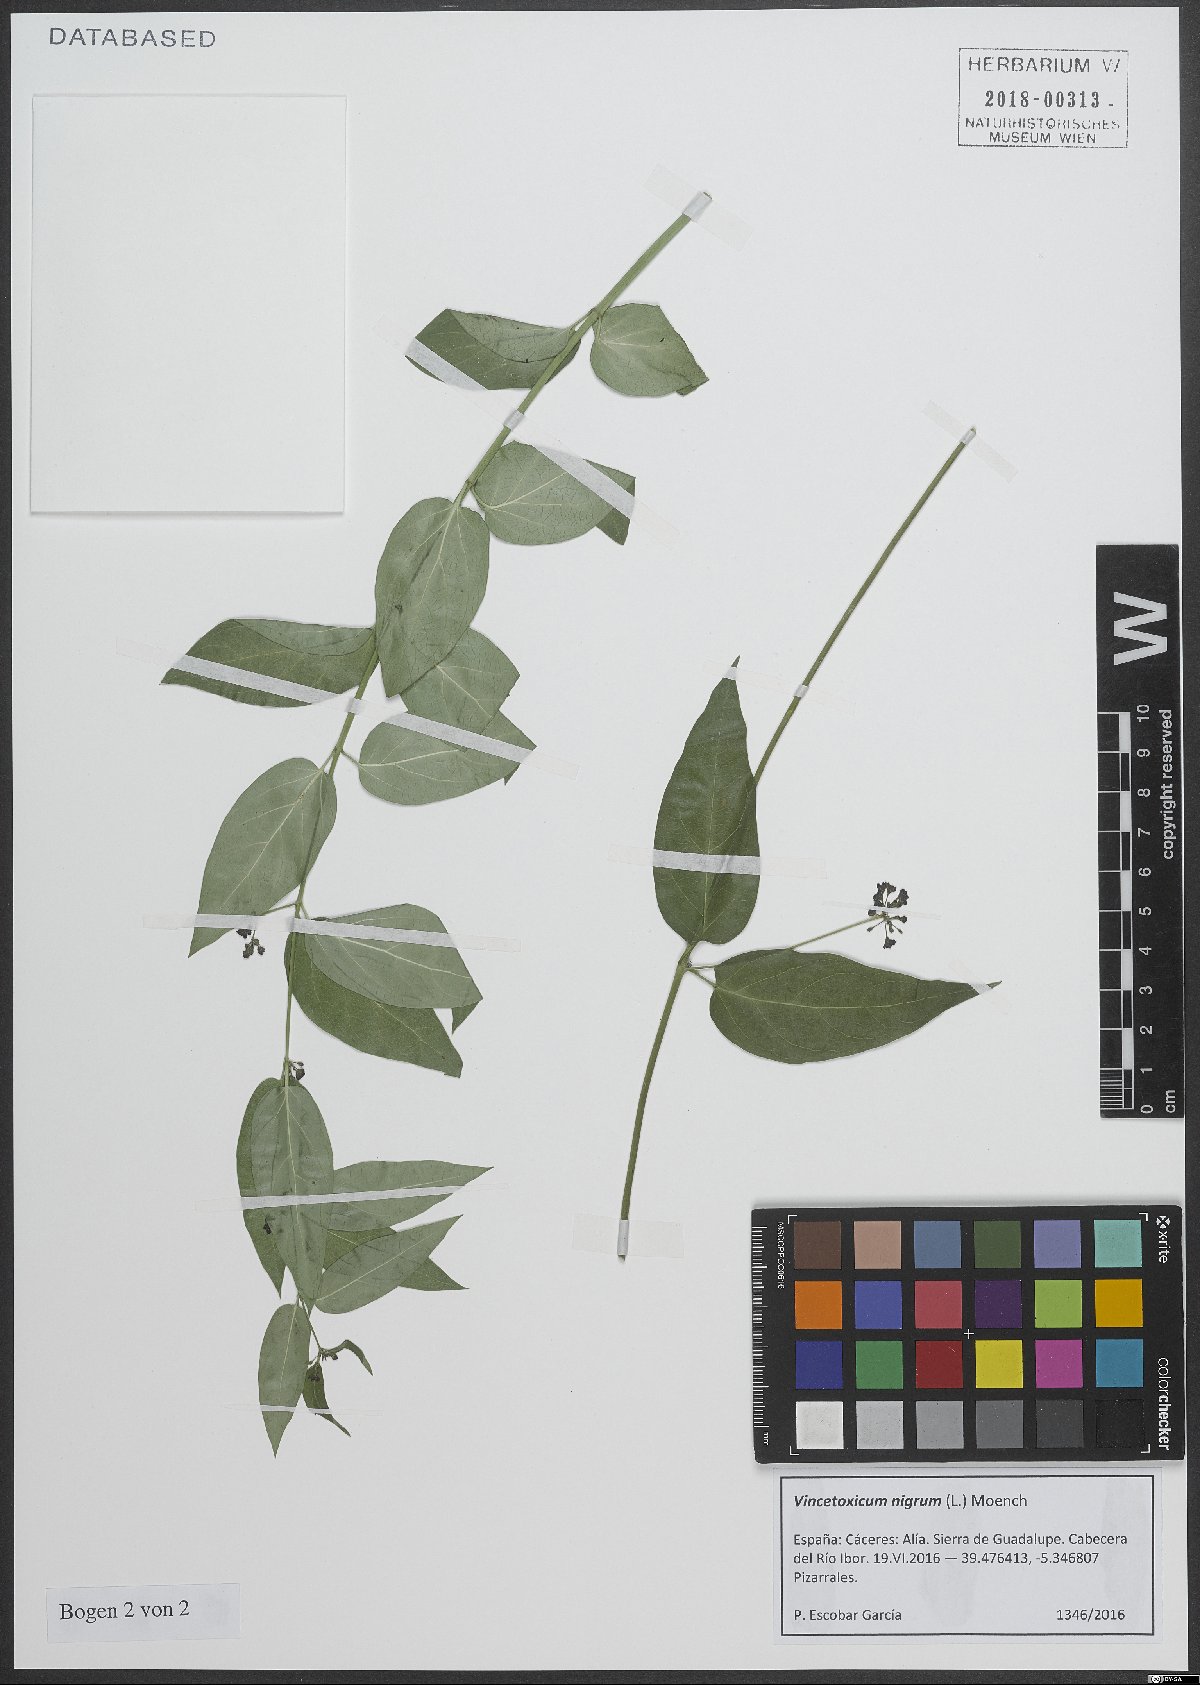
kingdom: Plantae
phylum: Tracheophyta
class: Magnoliopsida
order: Gentianales
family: Apocynaceae
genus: Vincetoxicum
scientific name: Vincetoxicum nigrum
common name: Black swallow-wort
